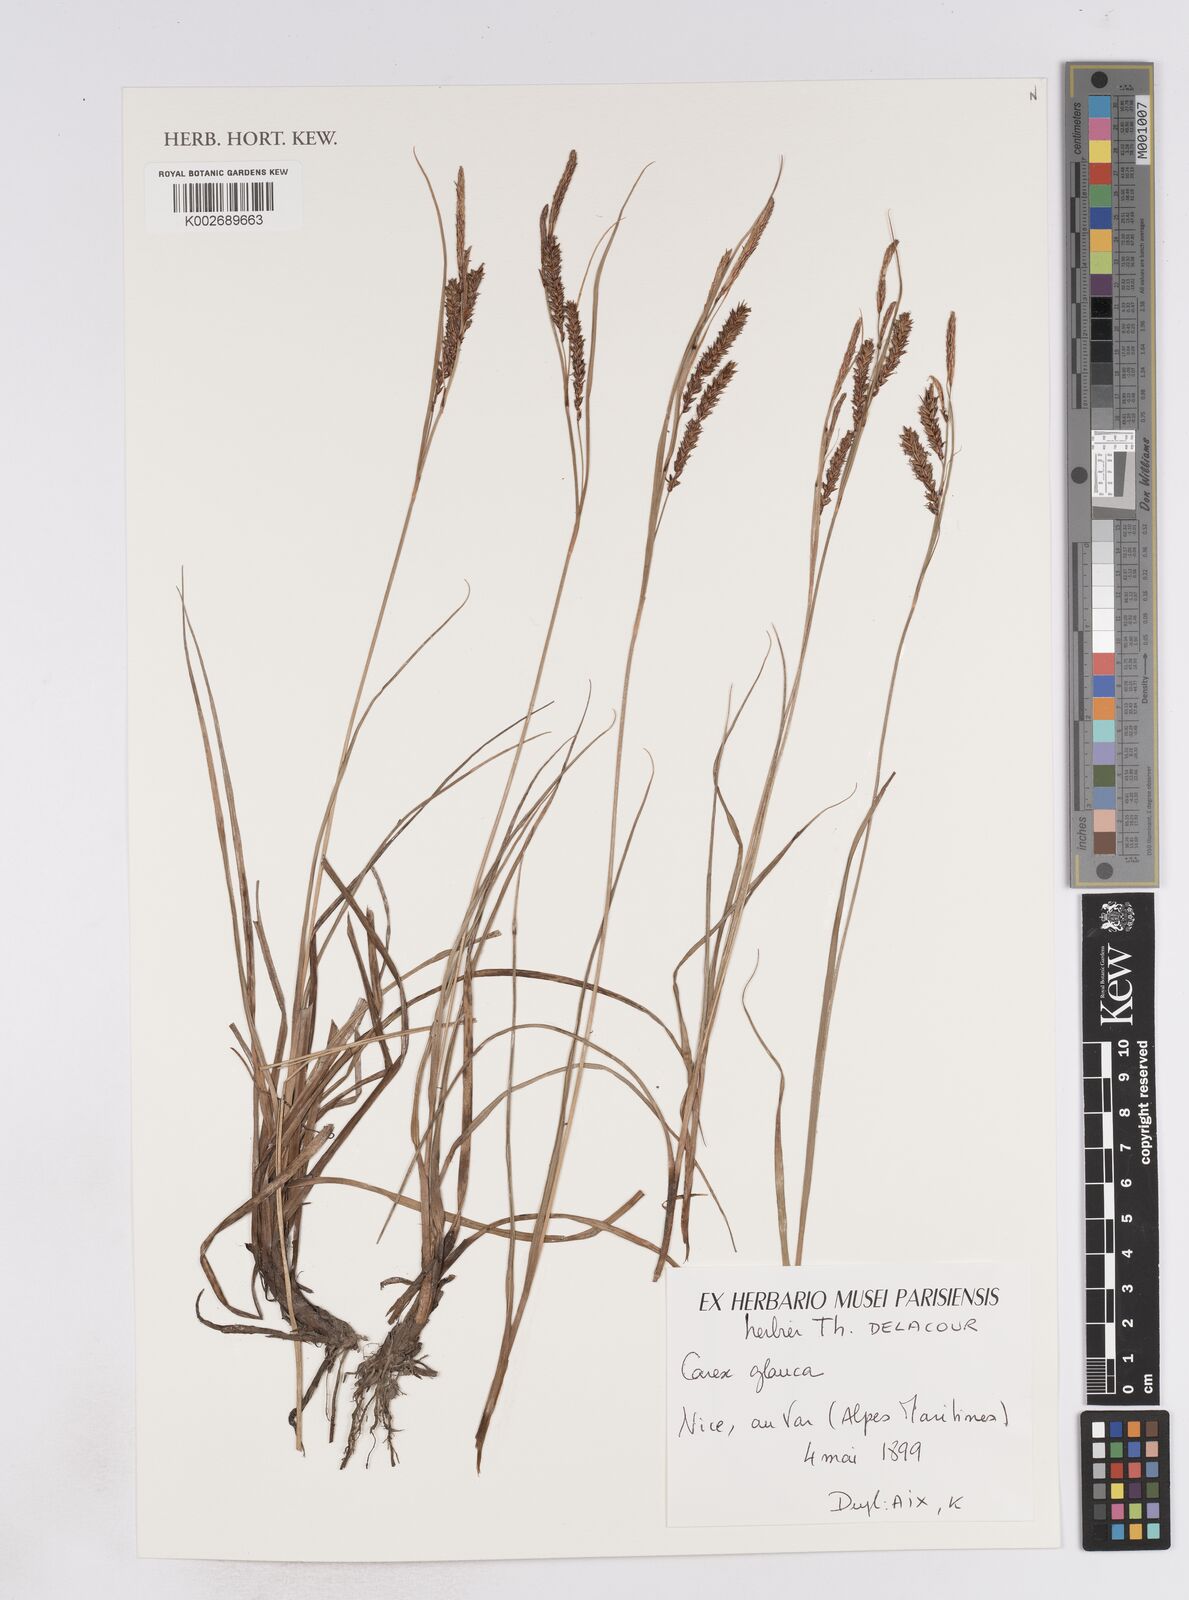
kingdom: Plantae
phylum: Tracheophyta
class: Liliopsida
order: Poales
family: Cyperaceae
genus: Carex
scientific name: Carex flacca
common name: Glaucous sedge
